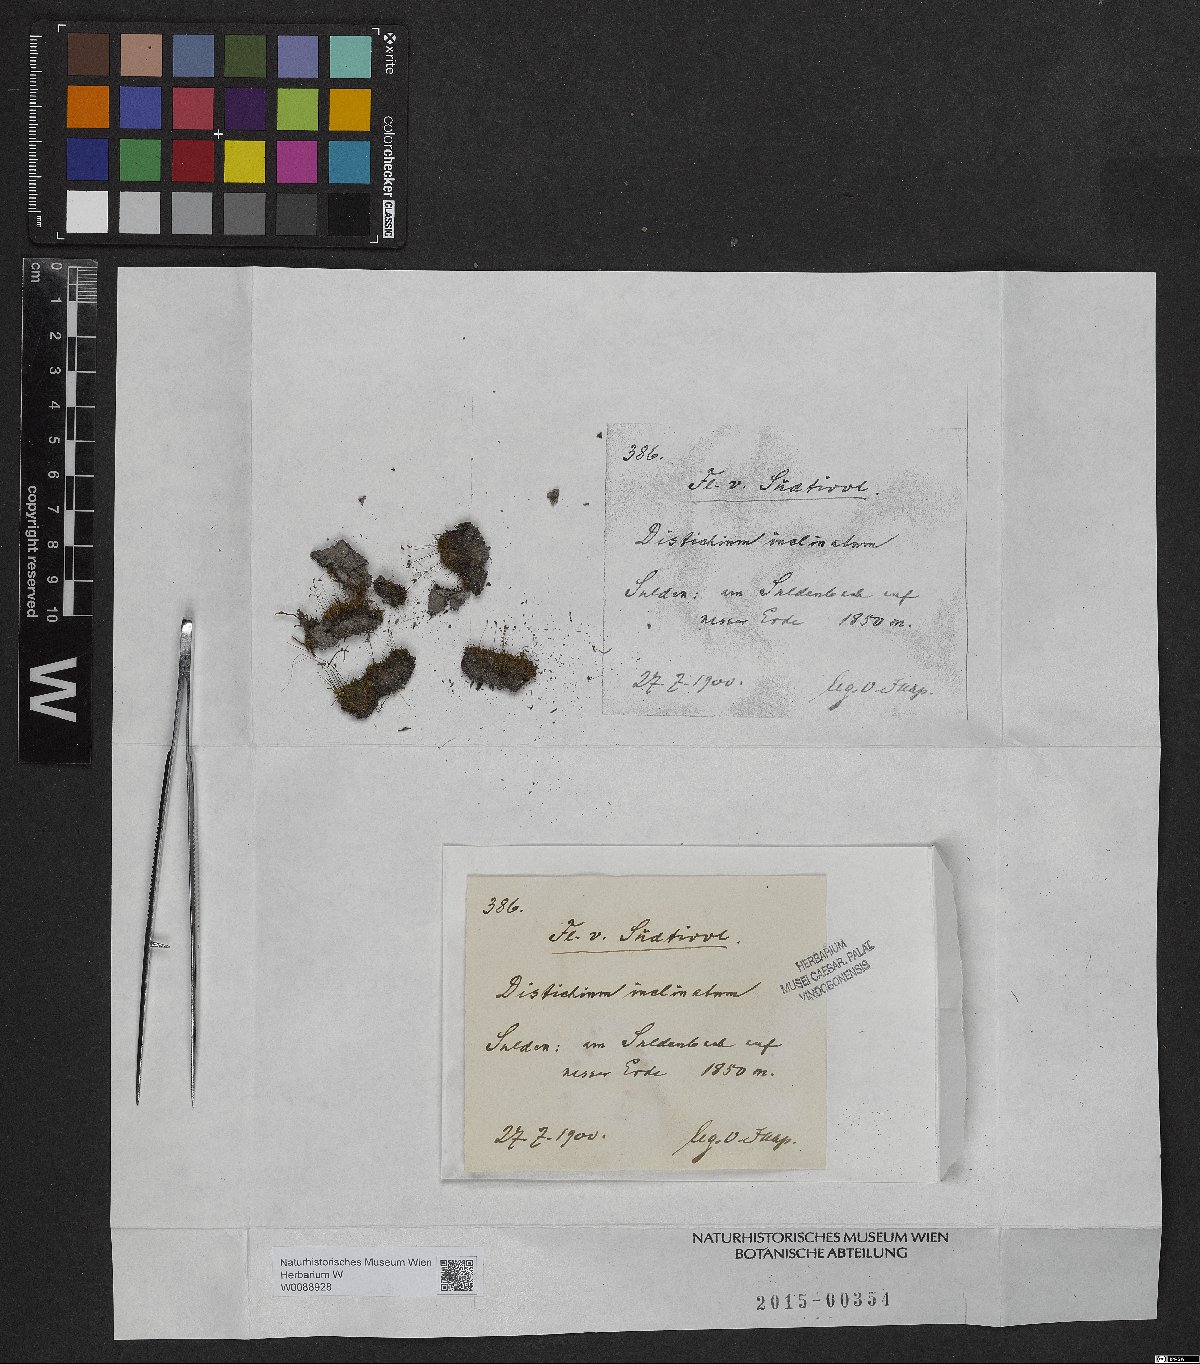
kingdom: Plantae
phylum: Bryophyta
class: Bryopsida
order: Scouleriales
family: Distichiaceae
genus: Distichium
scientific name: Distichium inclinatum
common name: Inclined iris moss
